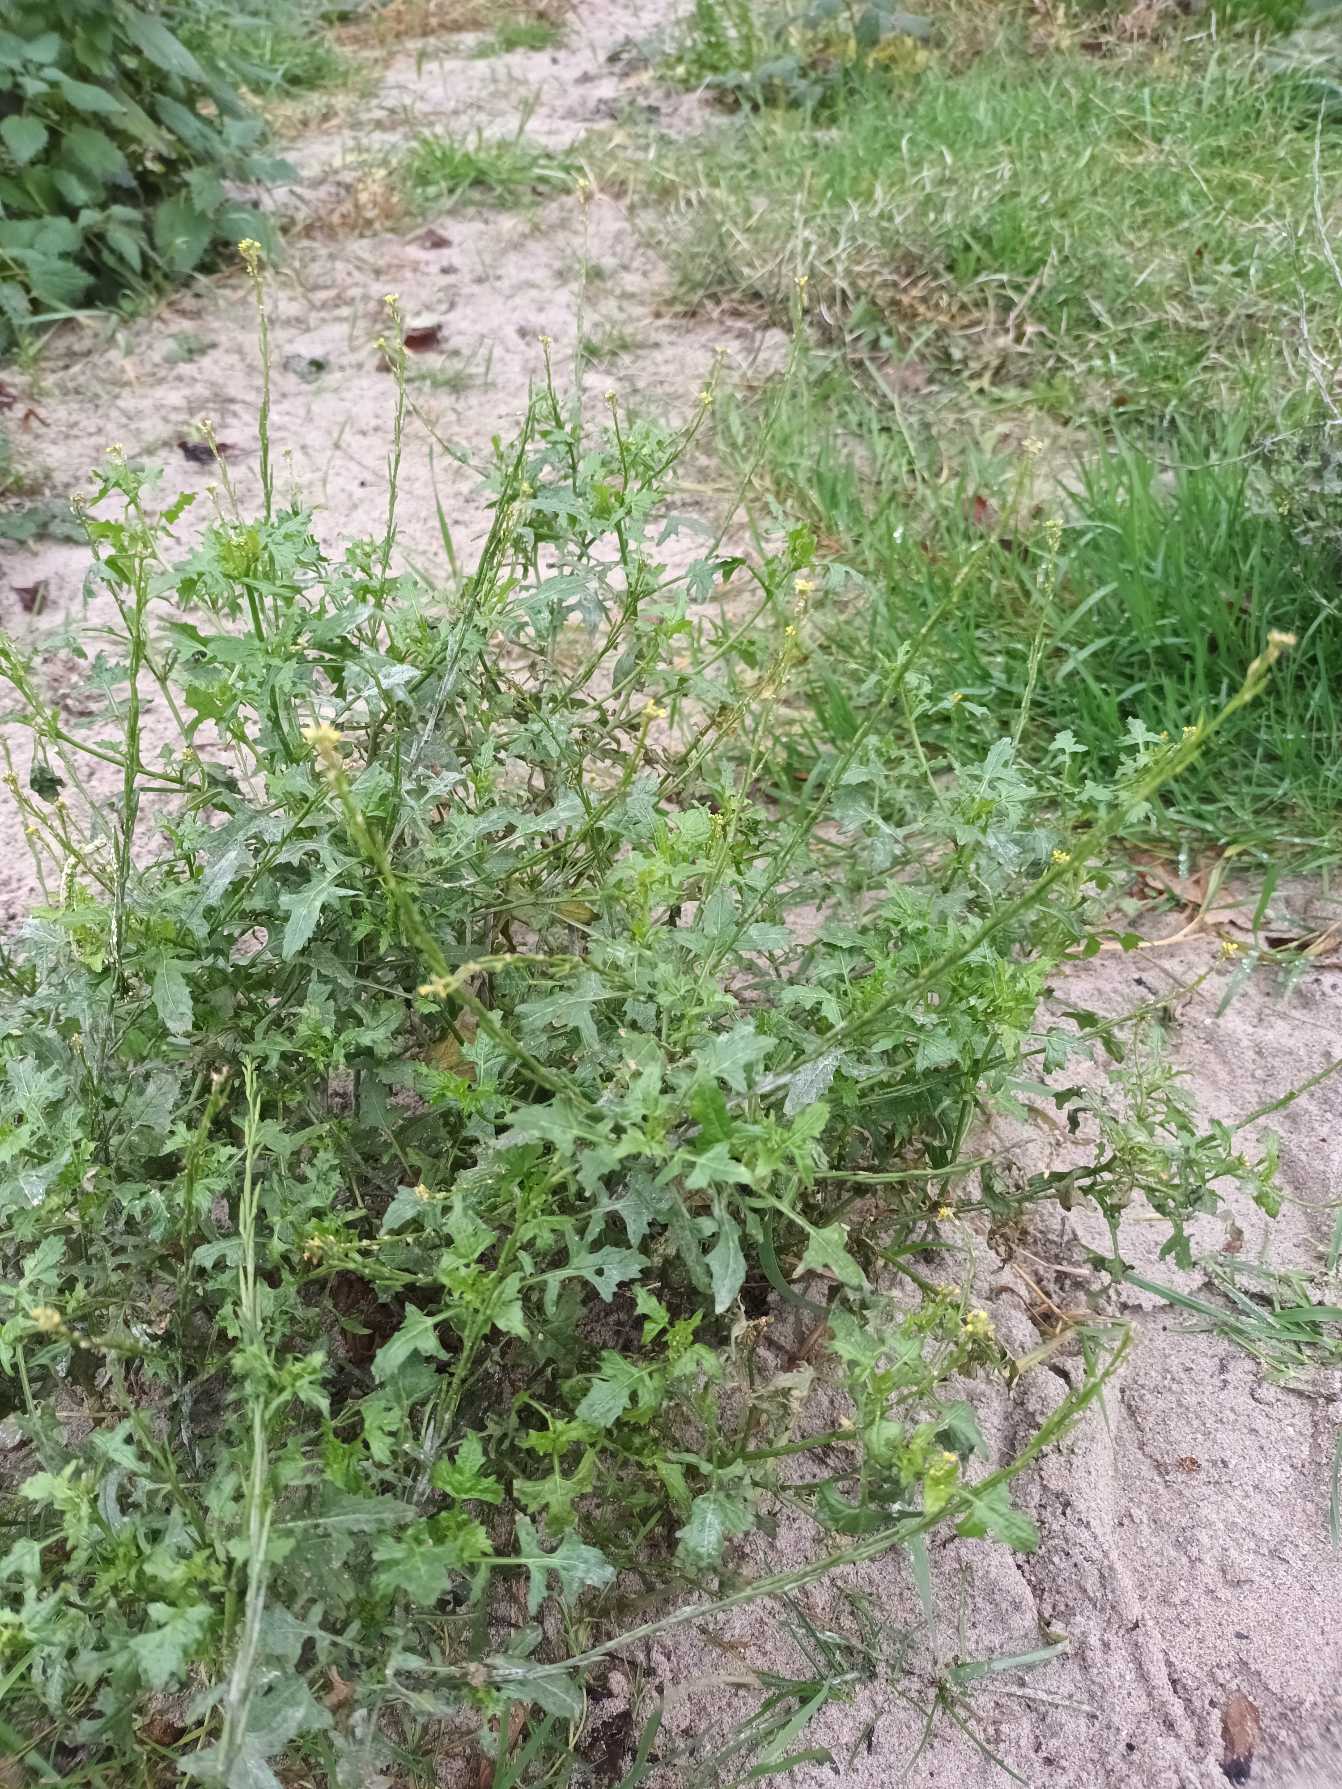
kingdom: Plantae
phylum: Tracheophyta
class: Magnoliopsida
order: Brassicales
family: Brassicaceae
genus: Sisymbrium
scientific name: Sisymbrium officinale
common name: Rank vejsennep
